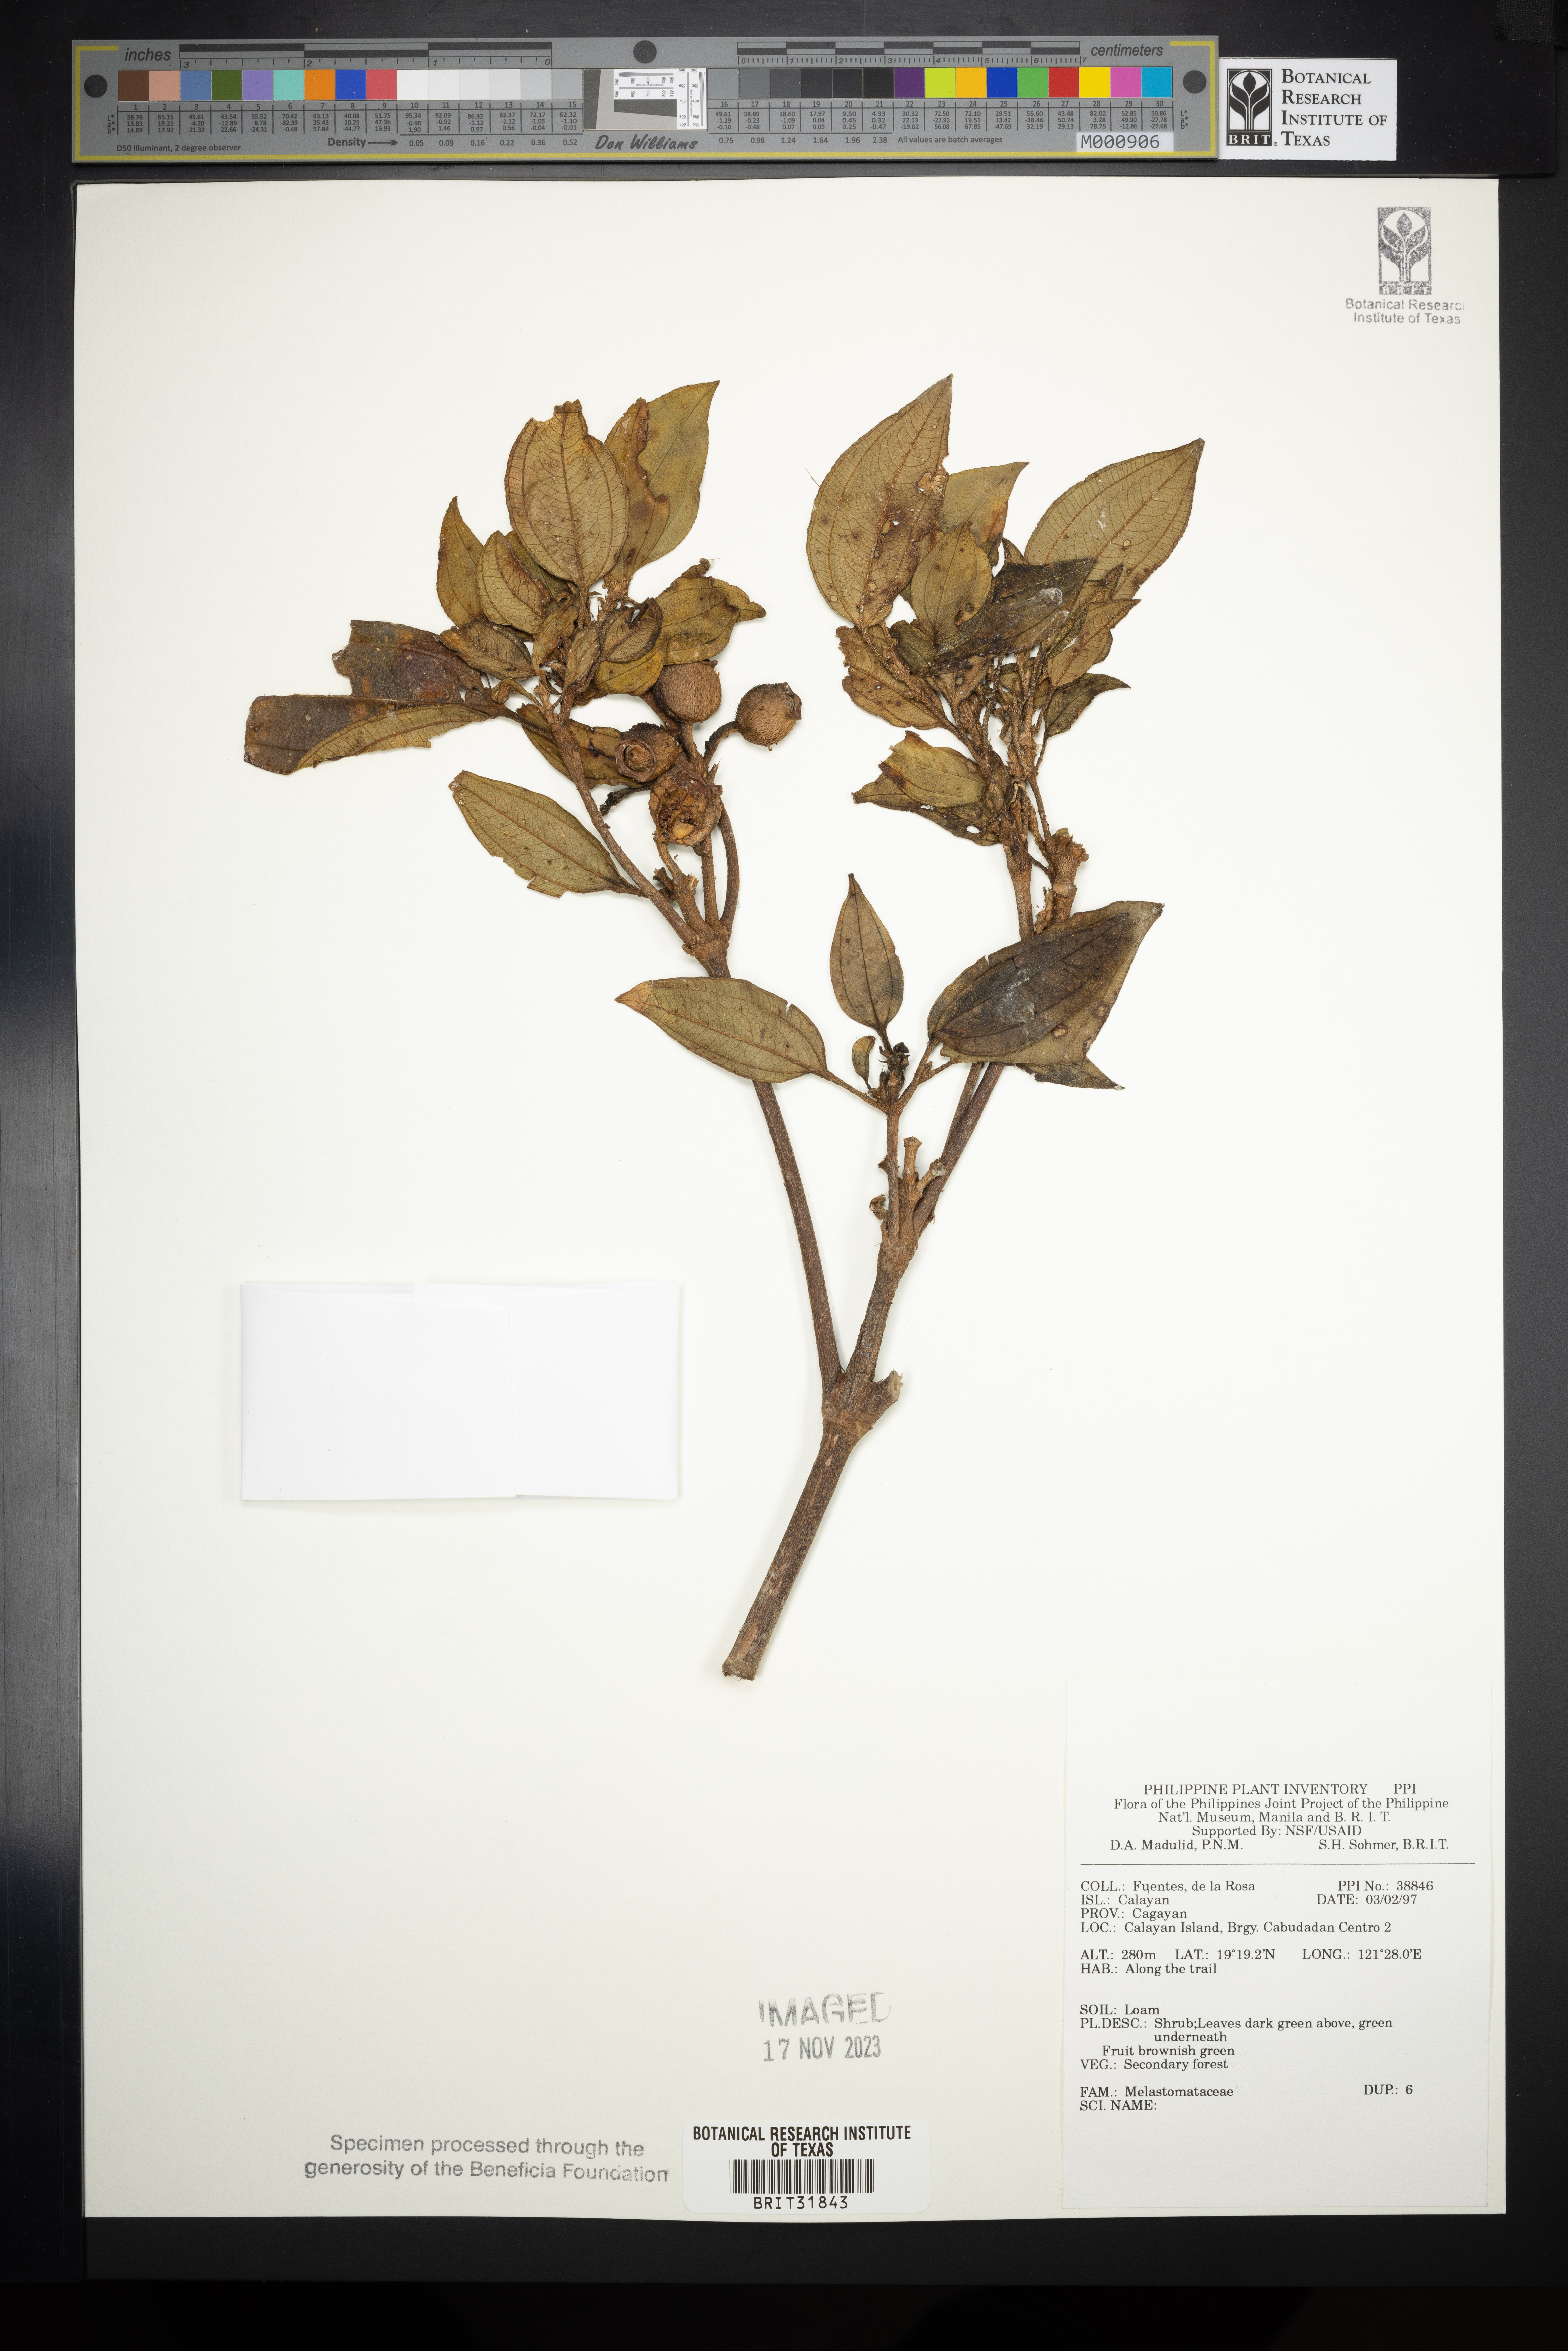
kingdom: Plantae
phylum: Tracheophyta
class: Magnoliopsida
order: Myrtales
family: Melastomataceae
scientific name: Melastomataceae
